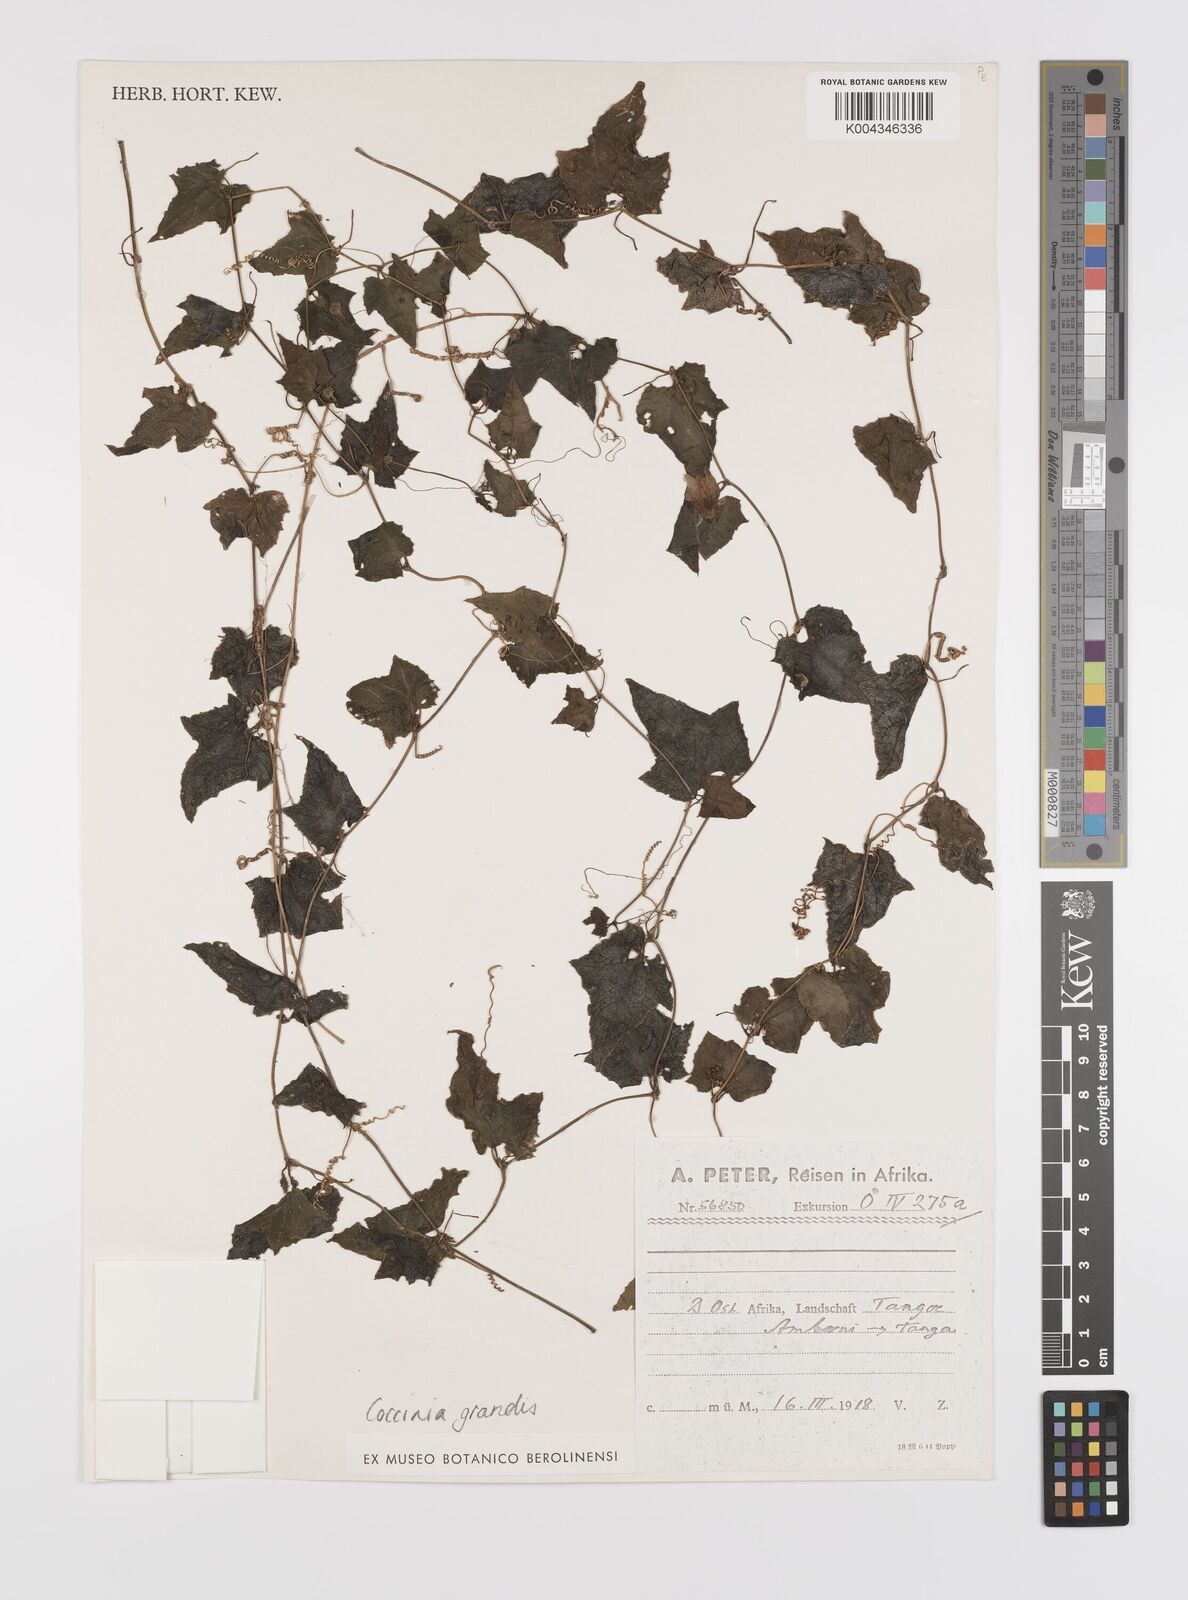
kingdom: Plantae
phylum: Tracheophyta
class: Magnoliopsida
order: Cucurbitales
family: Cucurbitaceae
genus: Coccinia
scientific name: Coccinia grandis
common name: Ivy gourd
